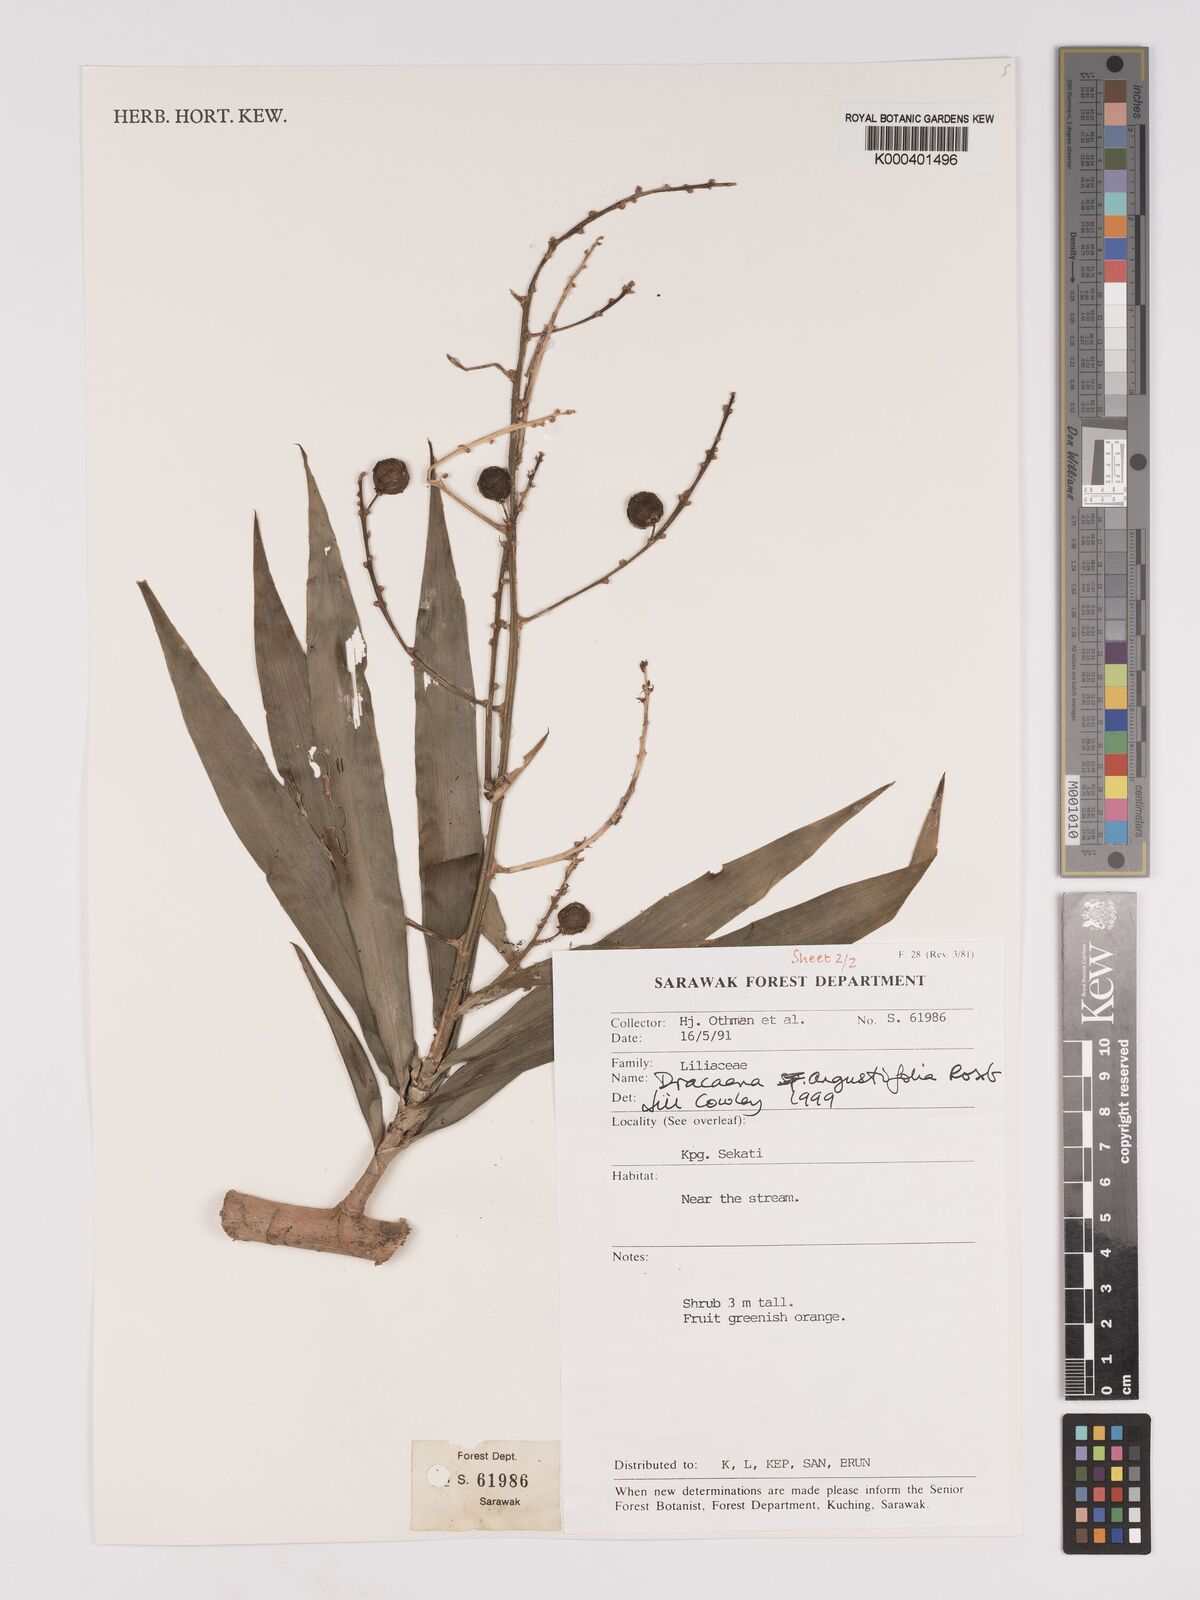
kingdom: Plantae
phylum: Tracheophyta
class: Liliopsida
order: Asparagales
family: Asparagaceae
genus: Dracaena
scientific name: Dracaena angustifolia
